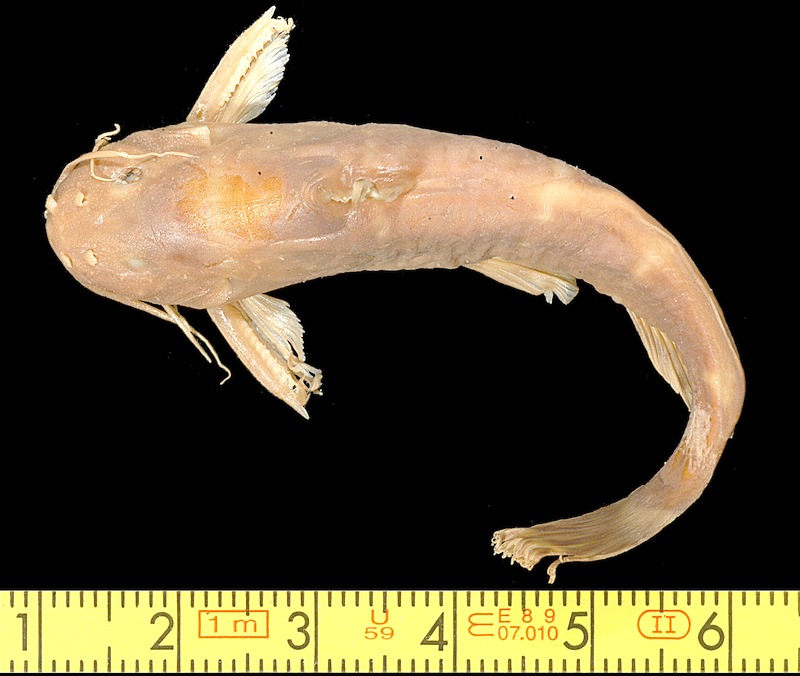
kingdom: Animalia
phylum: Chordata
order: Siluriformes
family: Mochokidae
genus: Mochokus
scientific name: Mochokus brevis
